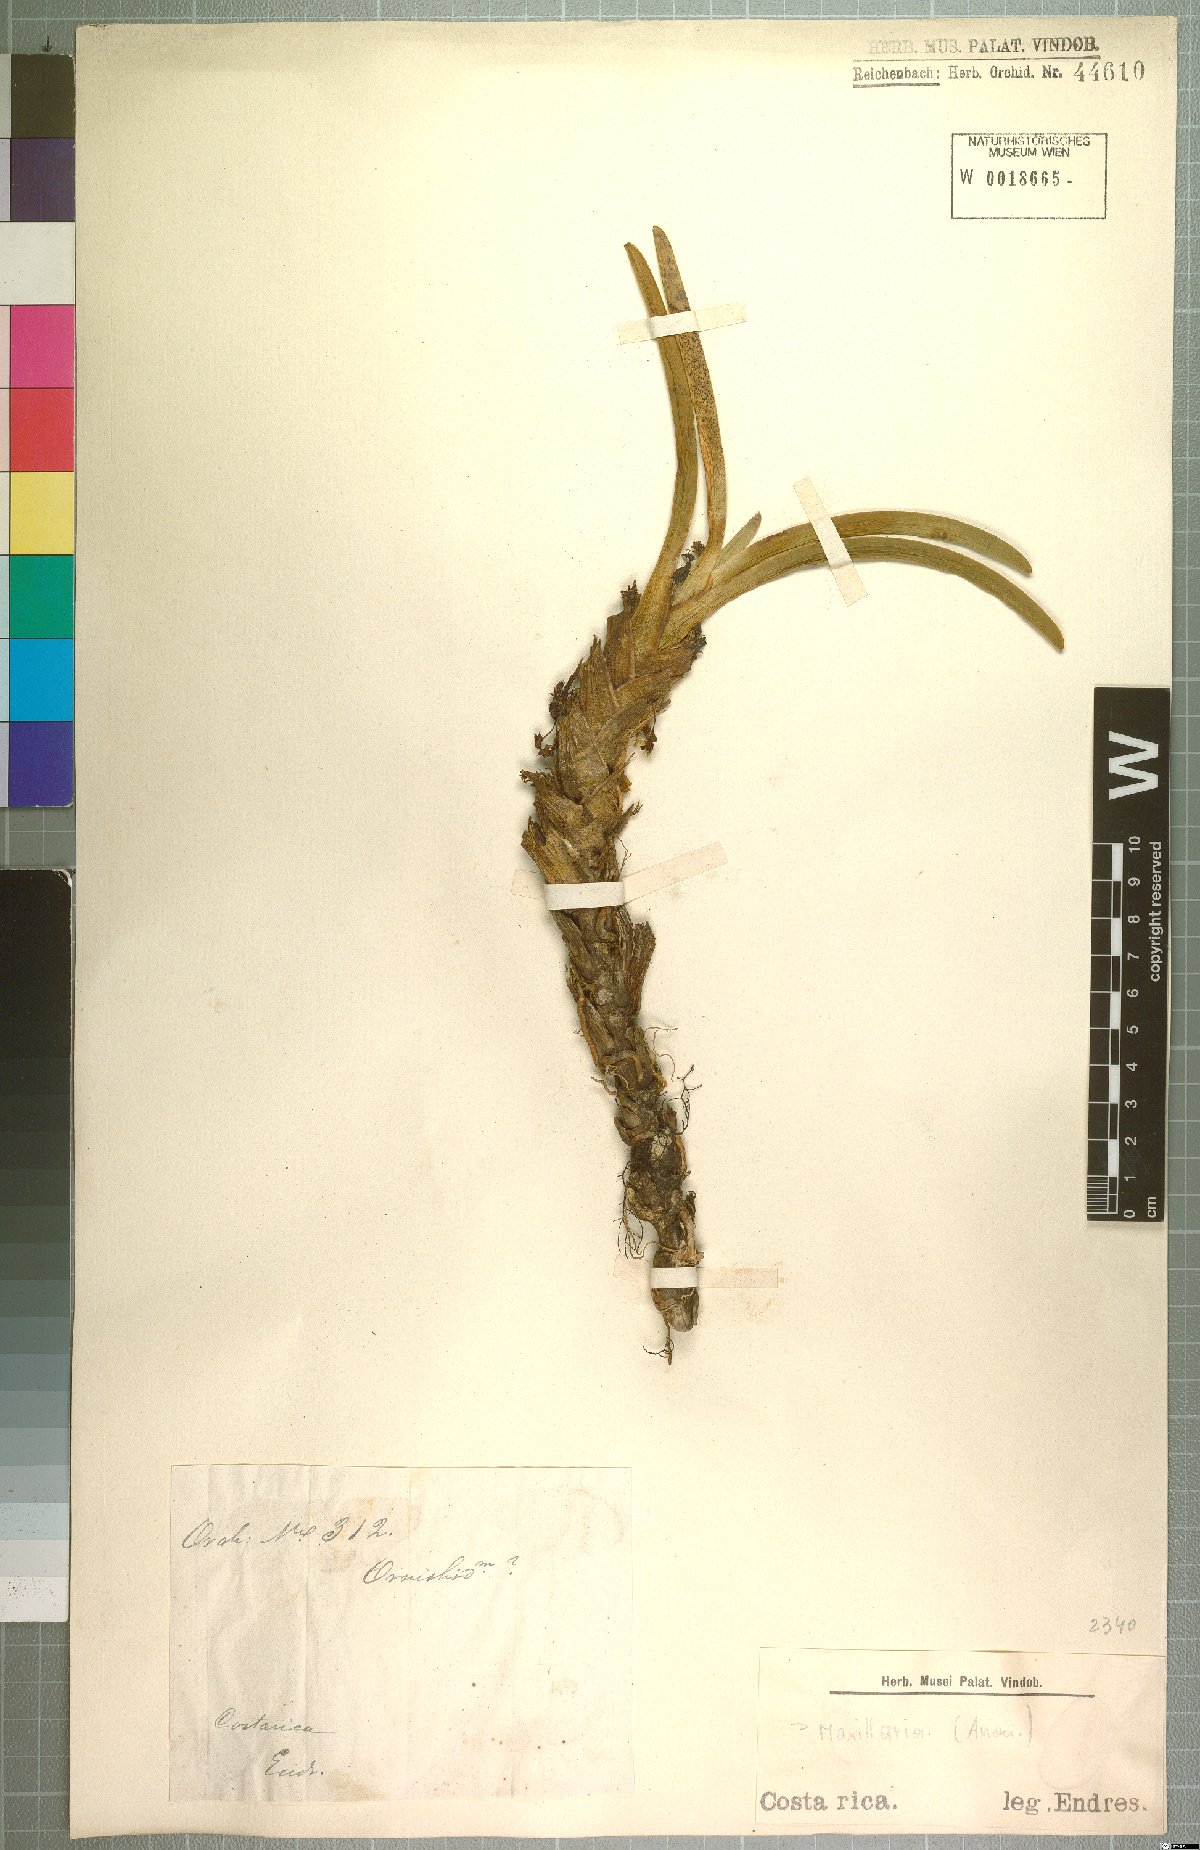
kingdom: Plantae
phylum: Tracheophyta
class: Liliopsida
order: Asparagales
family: Orchidaceae
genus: Maxillaria
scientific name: Maxillaria
